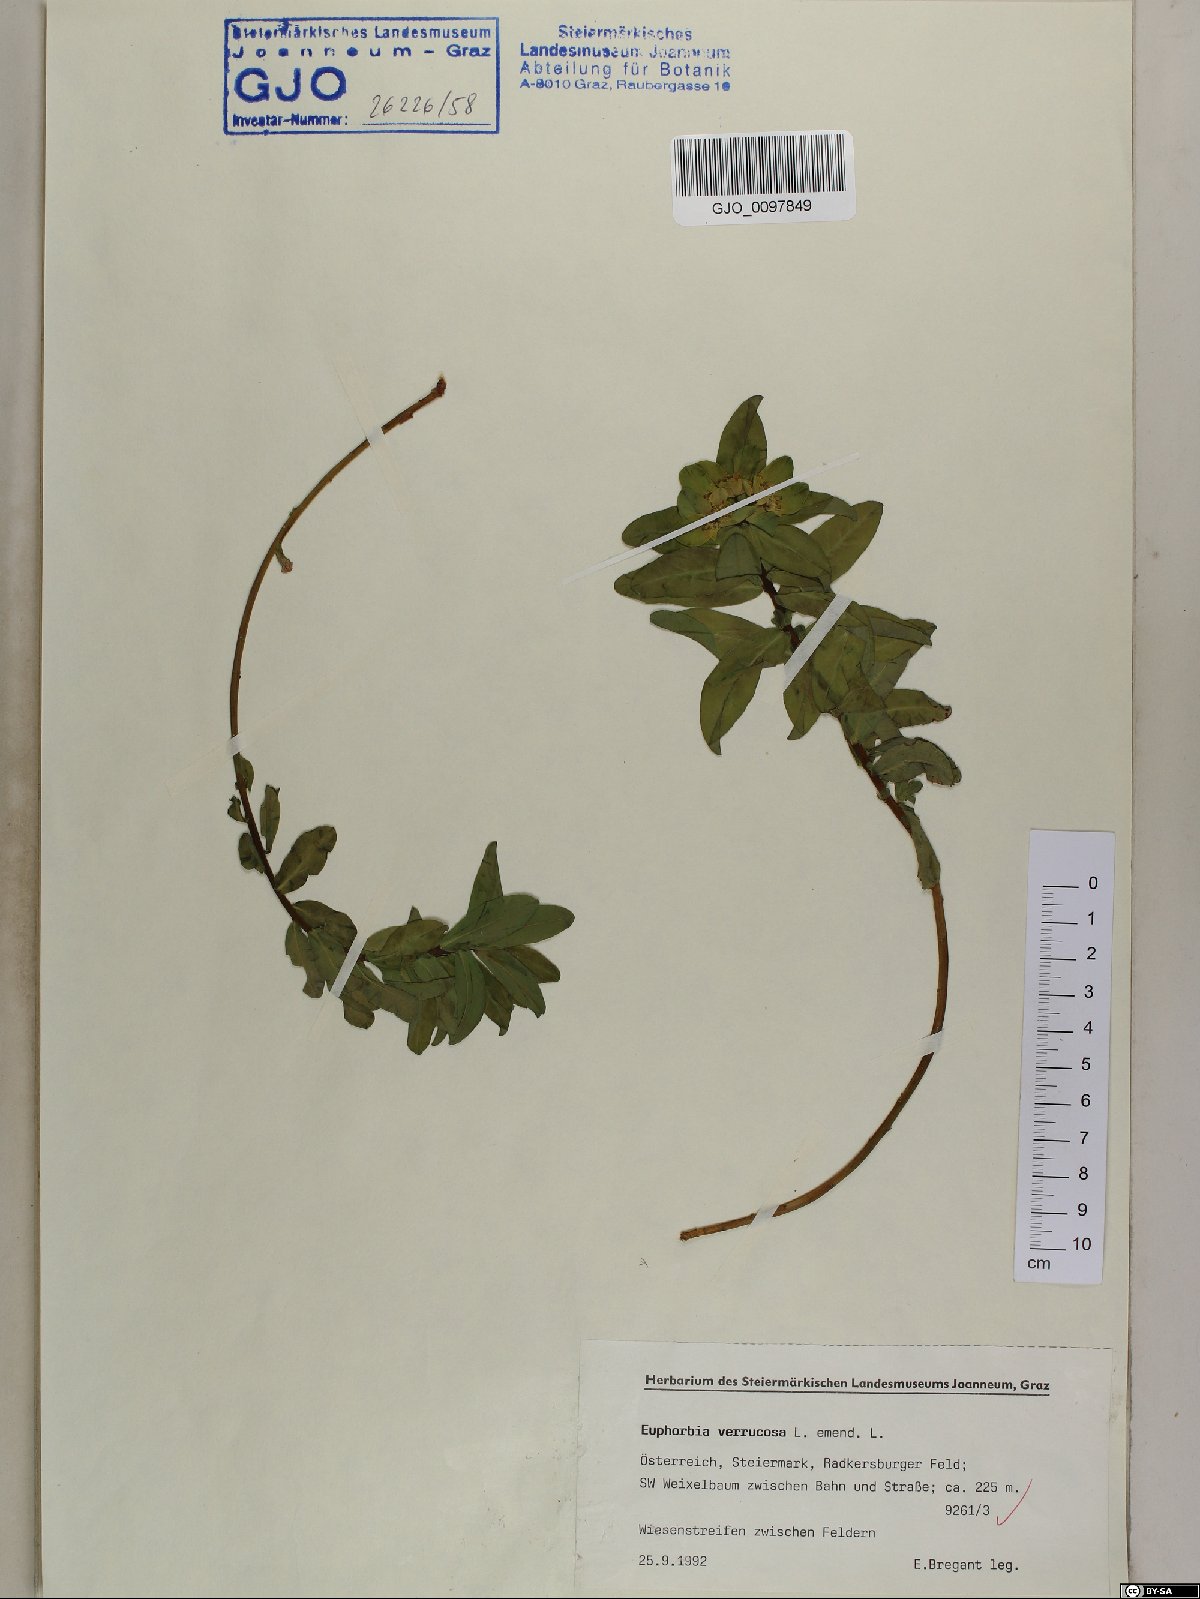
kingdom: Plantae
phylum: Tracheophyta
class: Magnoliopsida
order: Malpighiales
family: Euphorbiaceae
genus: Euphorbia
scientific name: Euphorbia verrucosa
